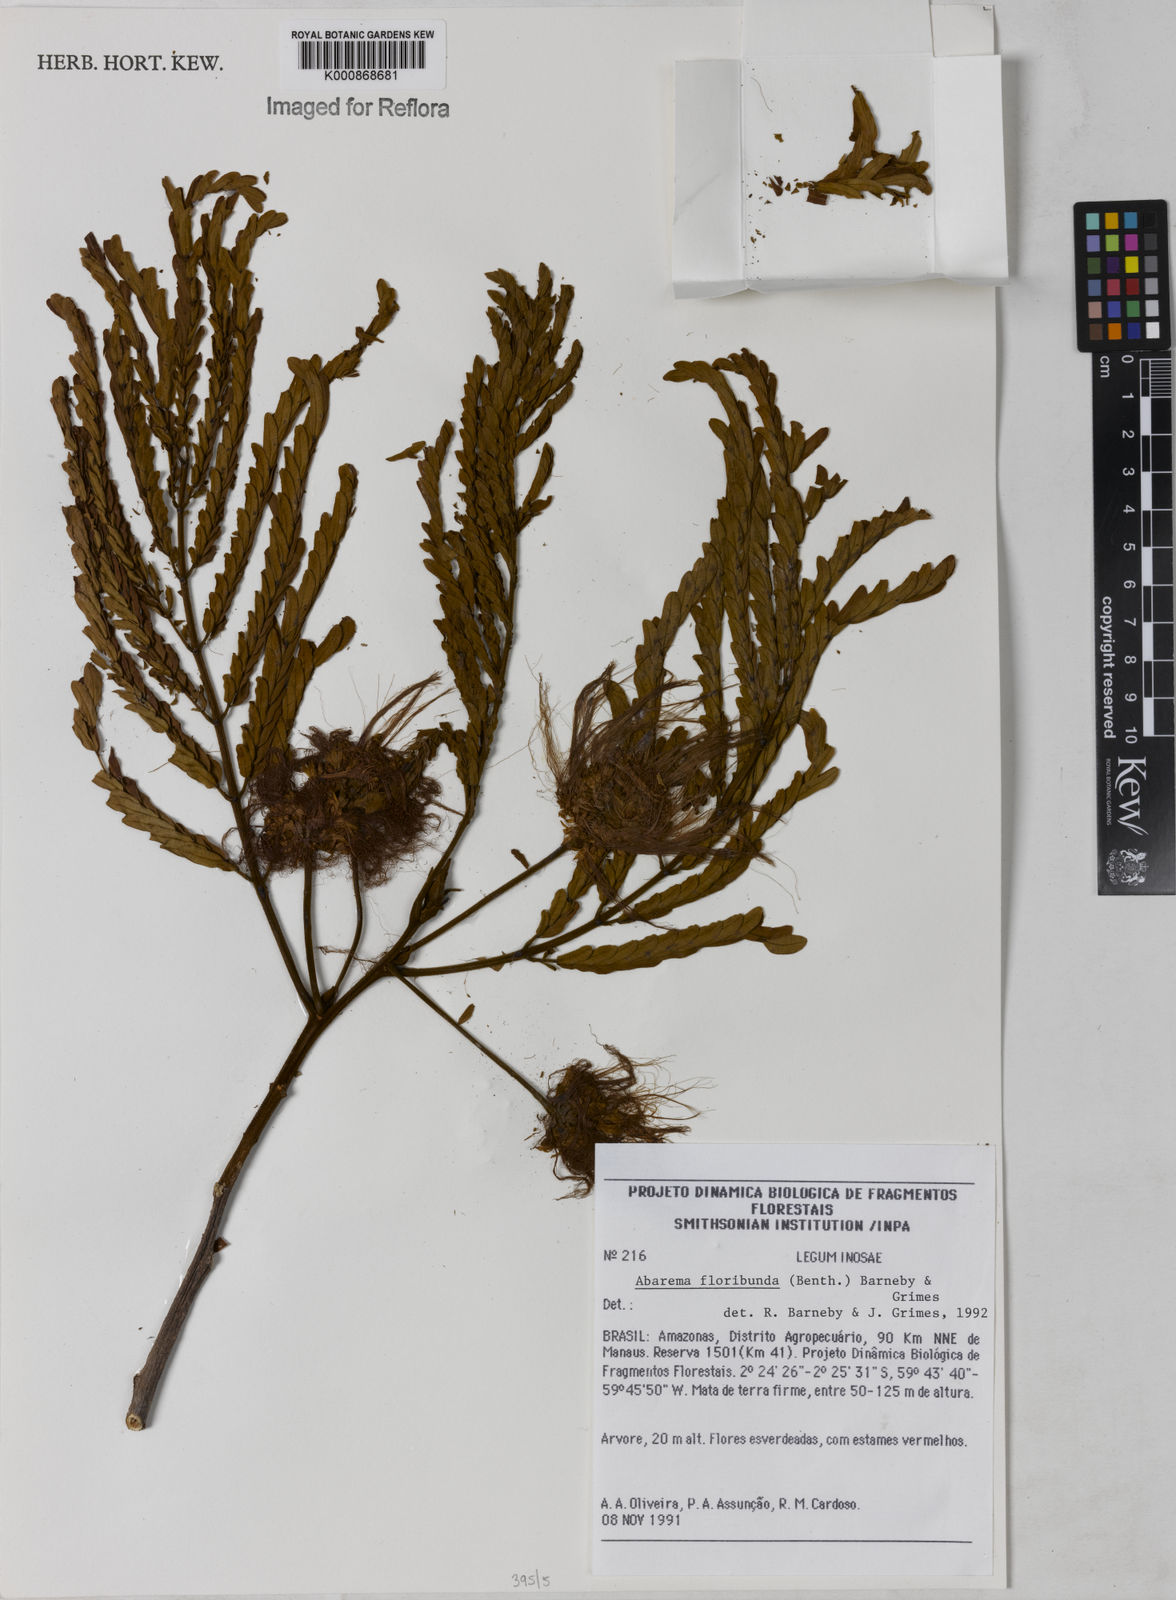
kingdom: Plantae
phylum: Tracheophyta
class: Magnoliopsida
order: Fabales
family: Fabaceae
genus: Jupunba
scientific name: Jupunba floribunda
